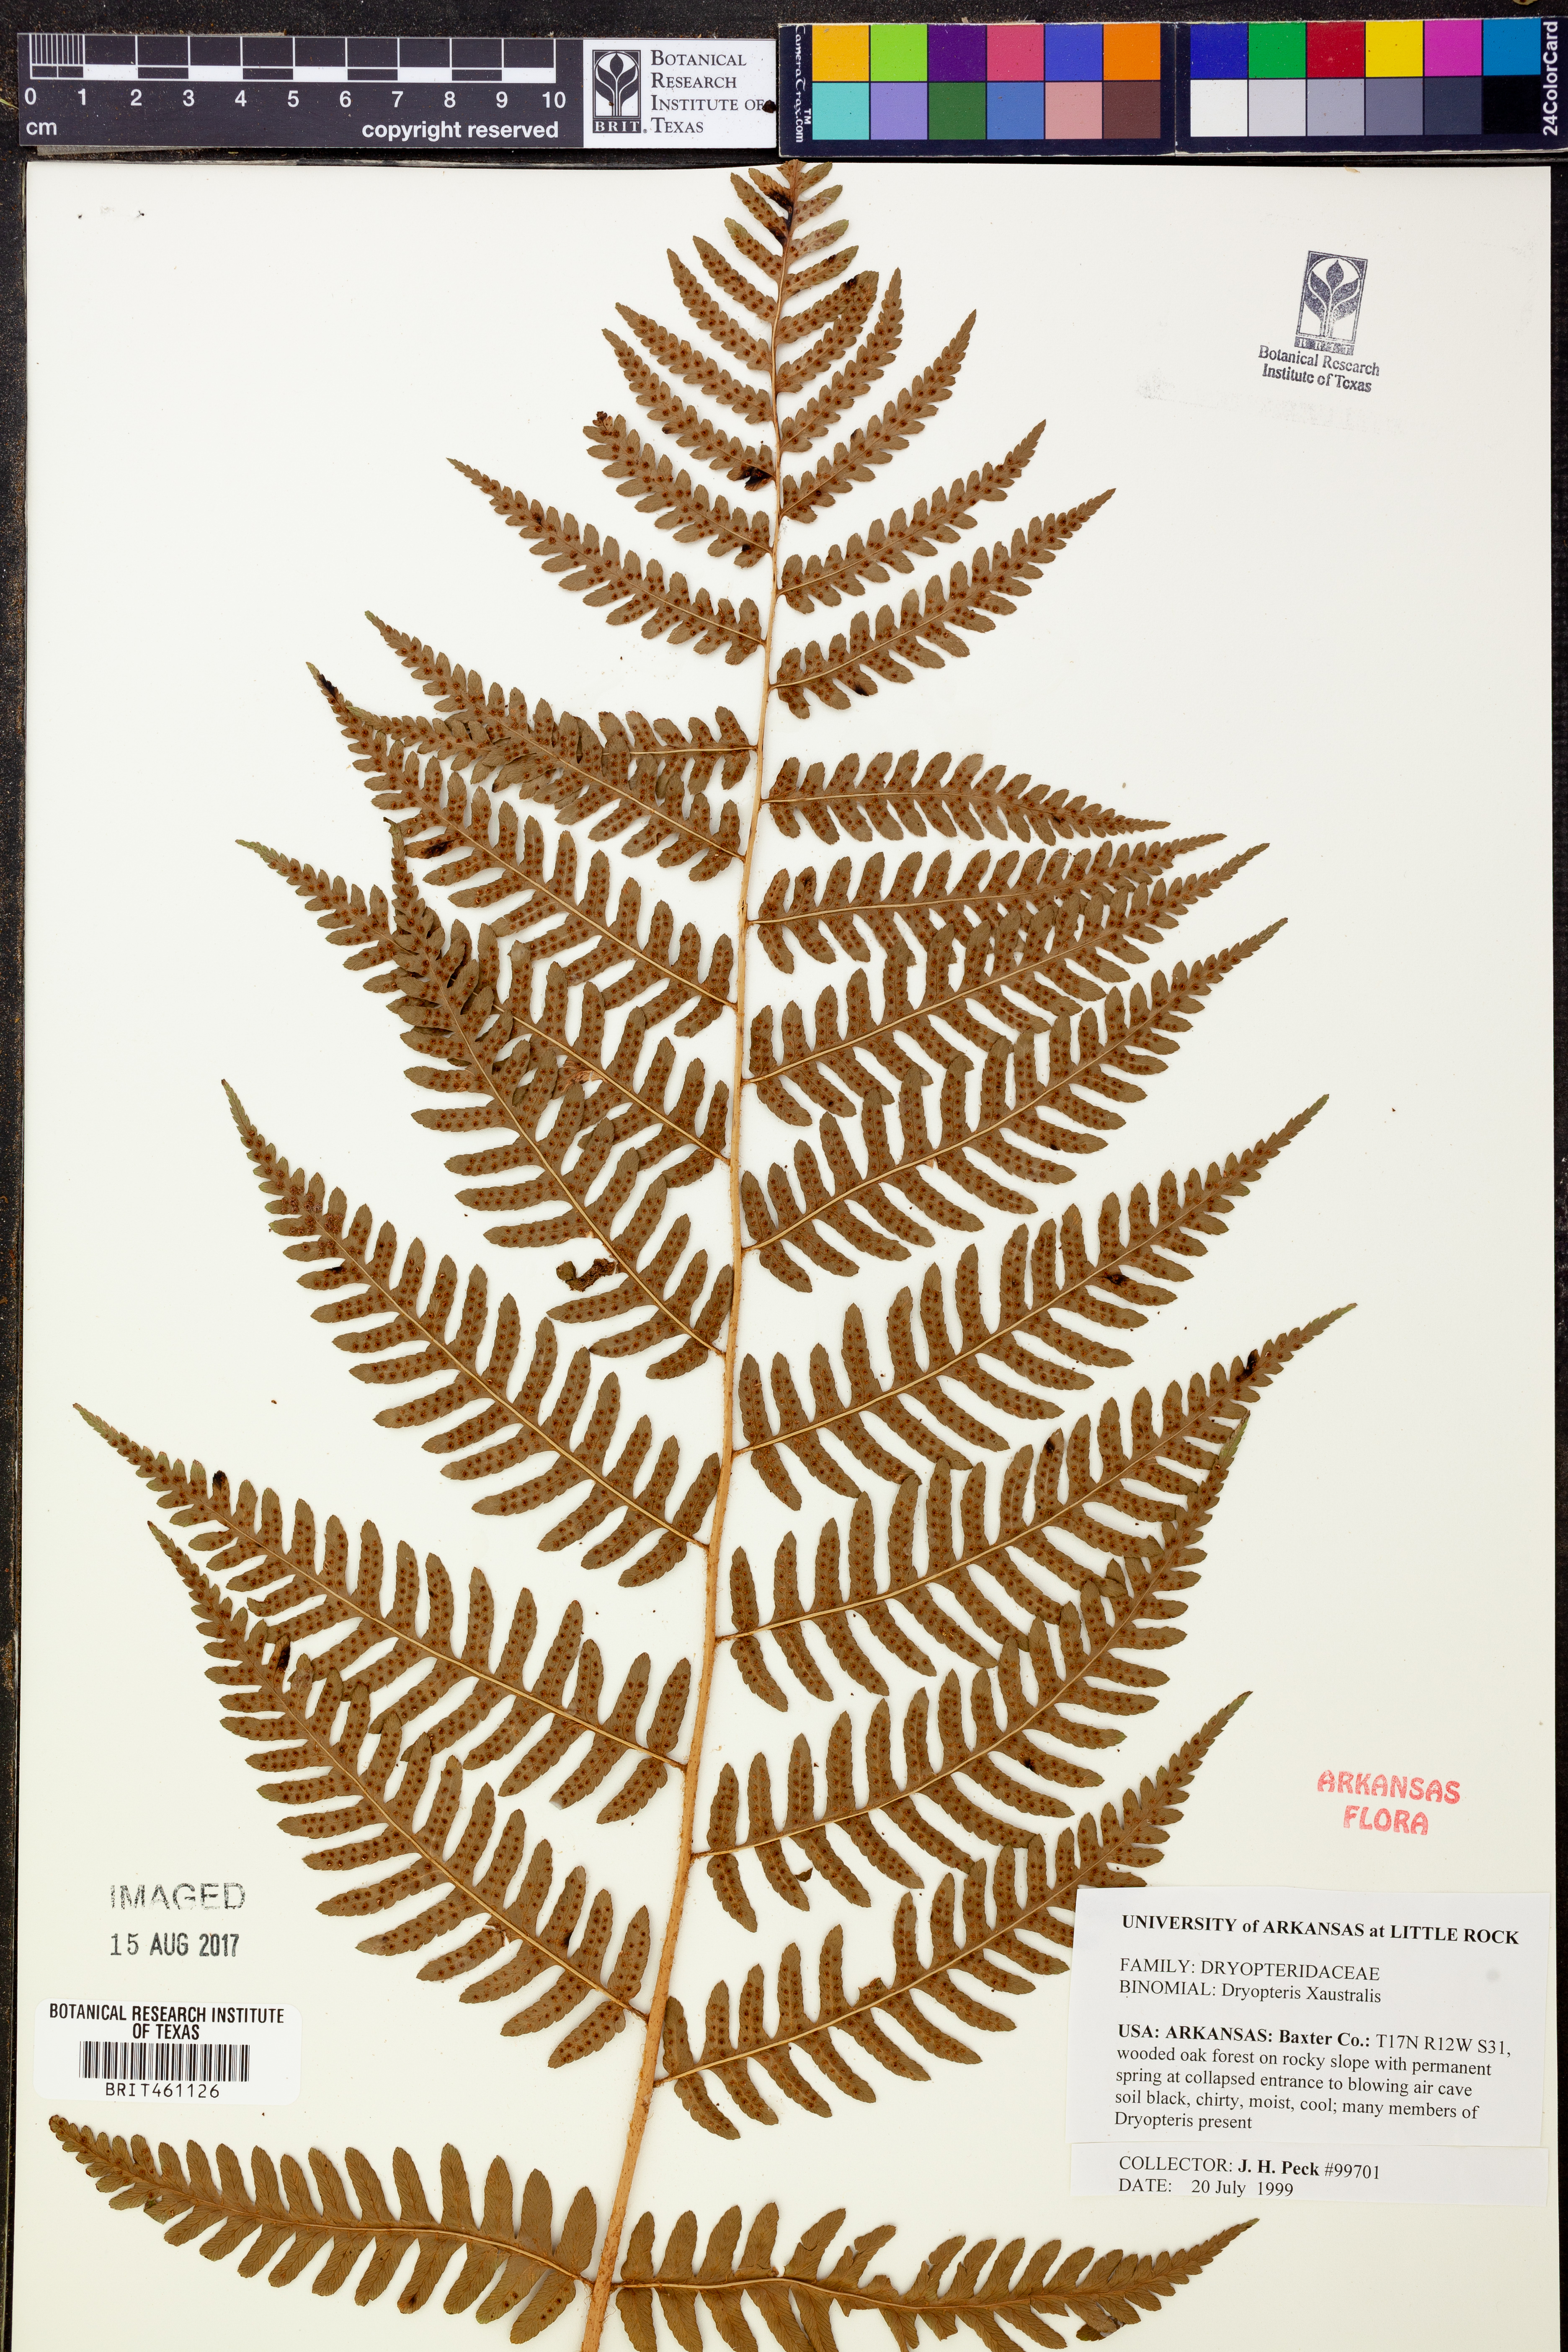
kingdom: Plantae
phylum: Tracheophyta
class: Polypodiopsida
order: Polypodiales
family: Dryopteridaceae
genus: Dryopteris
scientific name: Dryopteris
